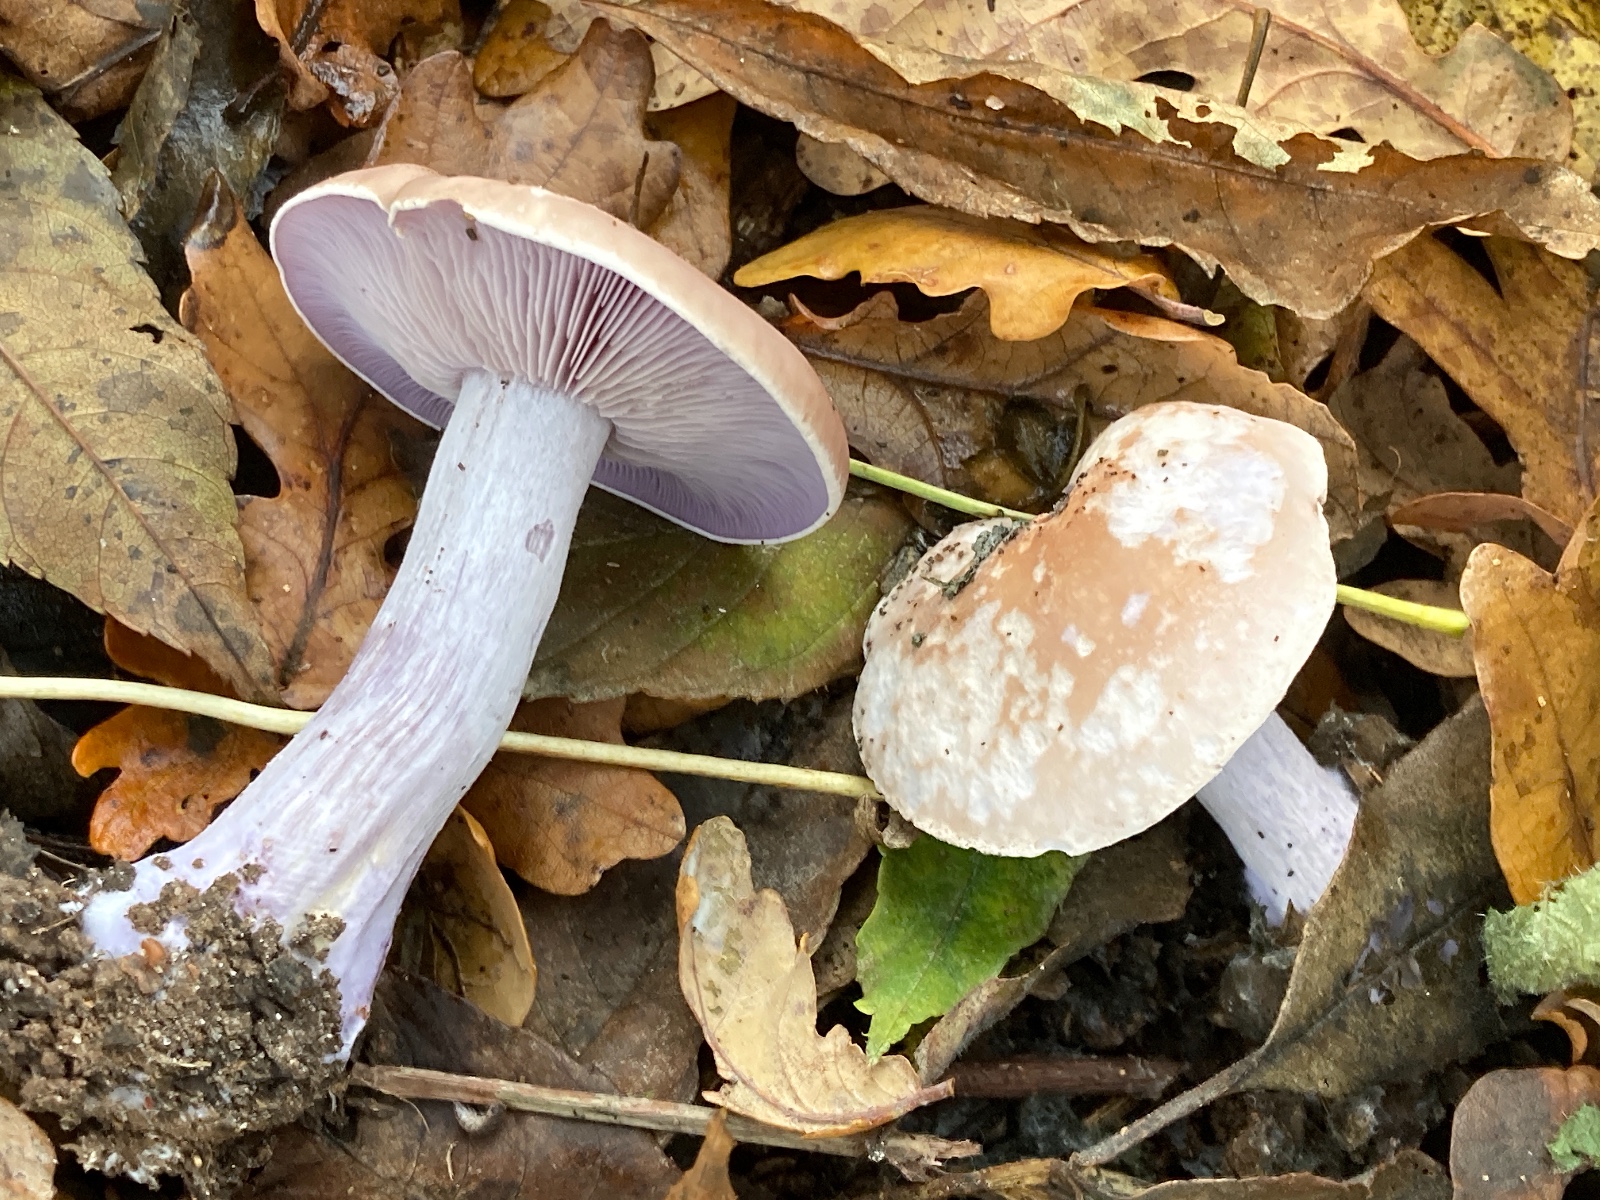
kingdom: Fungi
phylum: Basidiomycota
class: Agaricomycetes
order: Agaricales
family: Tricholomataceae
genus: Lepista
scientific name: Lepista nuda
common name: violet hekseringshat
